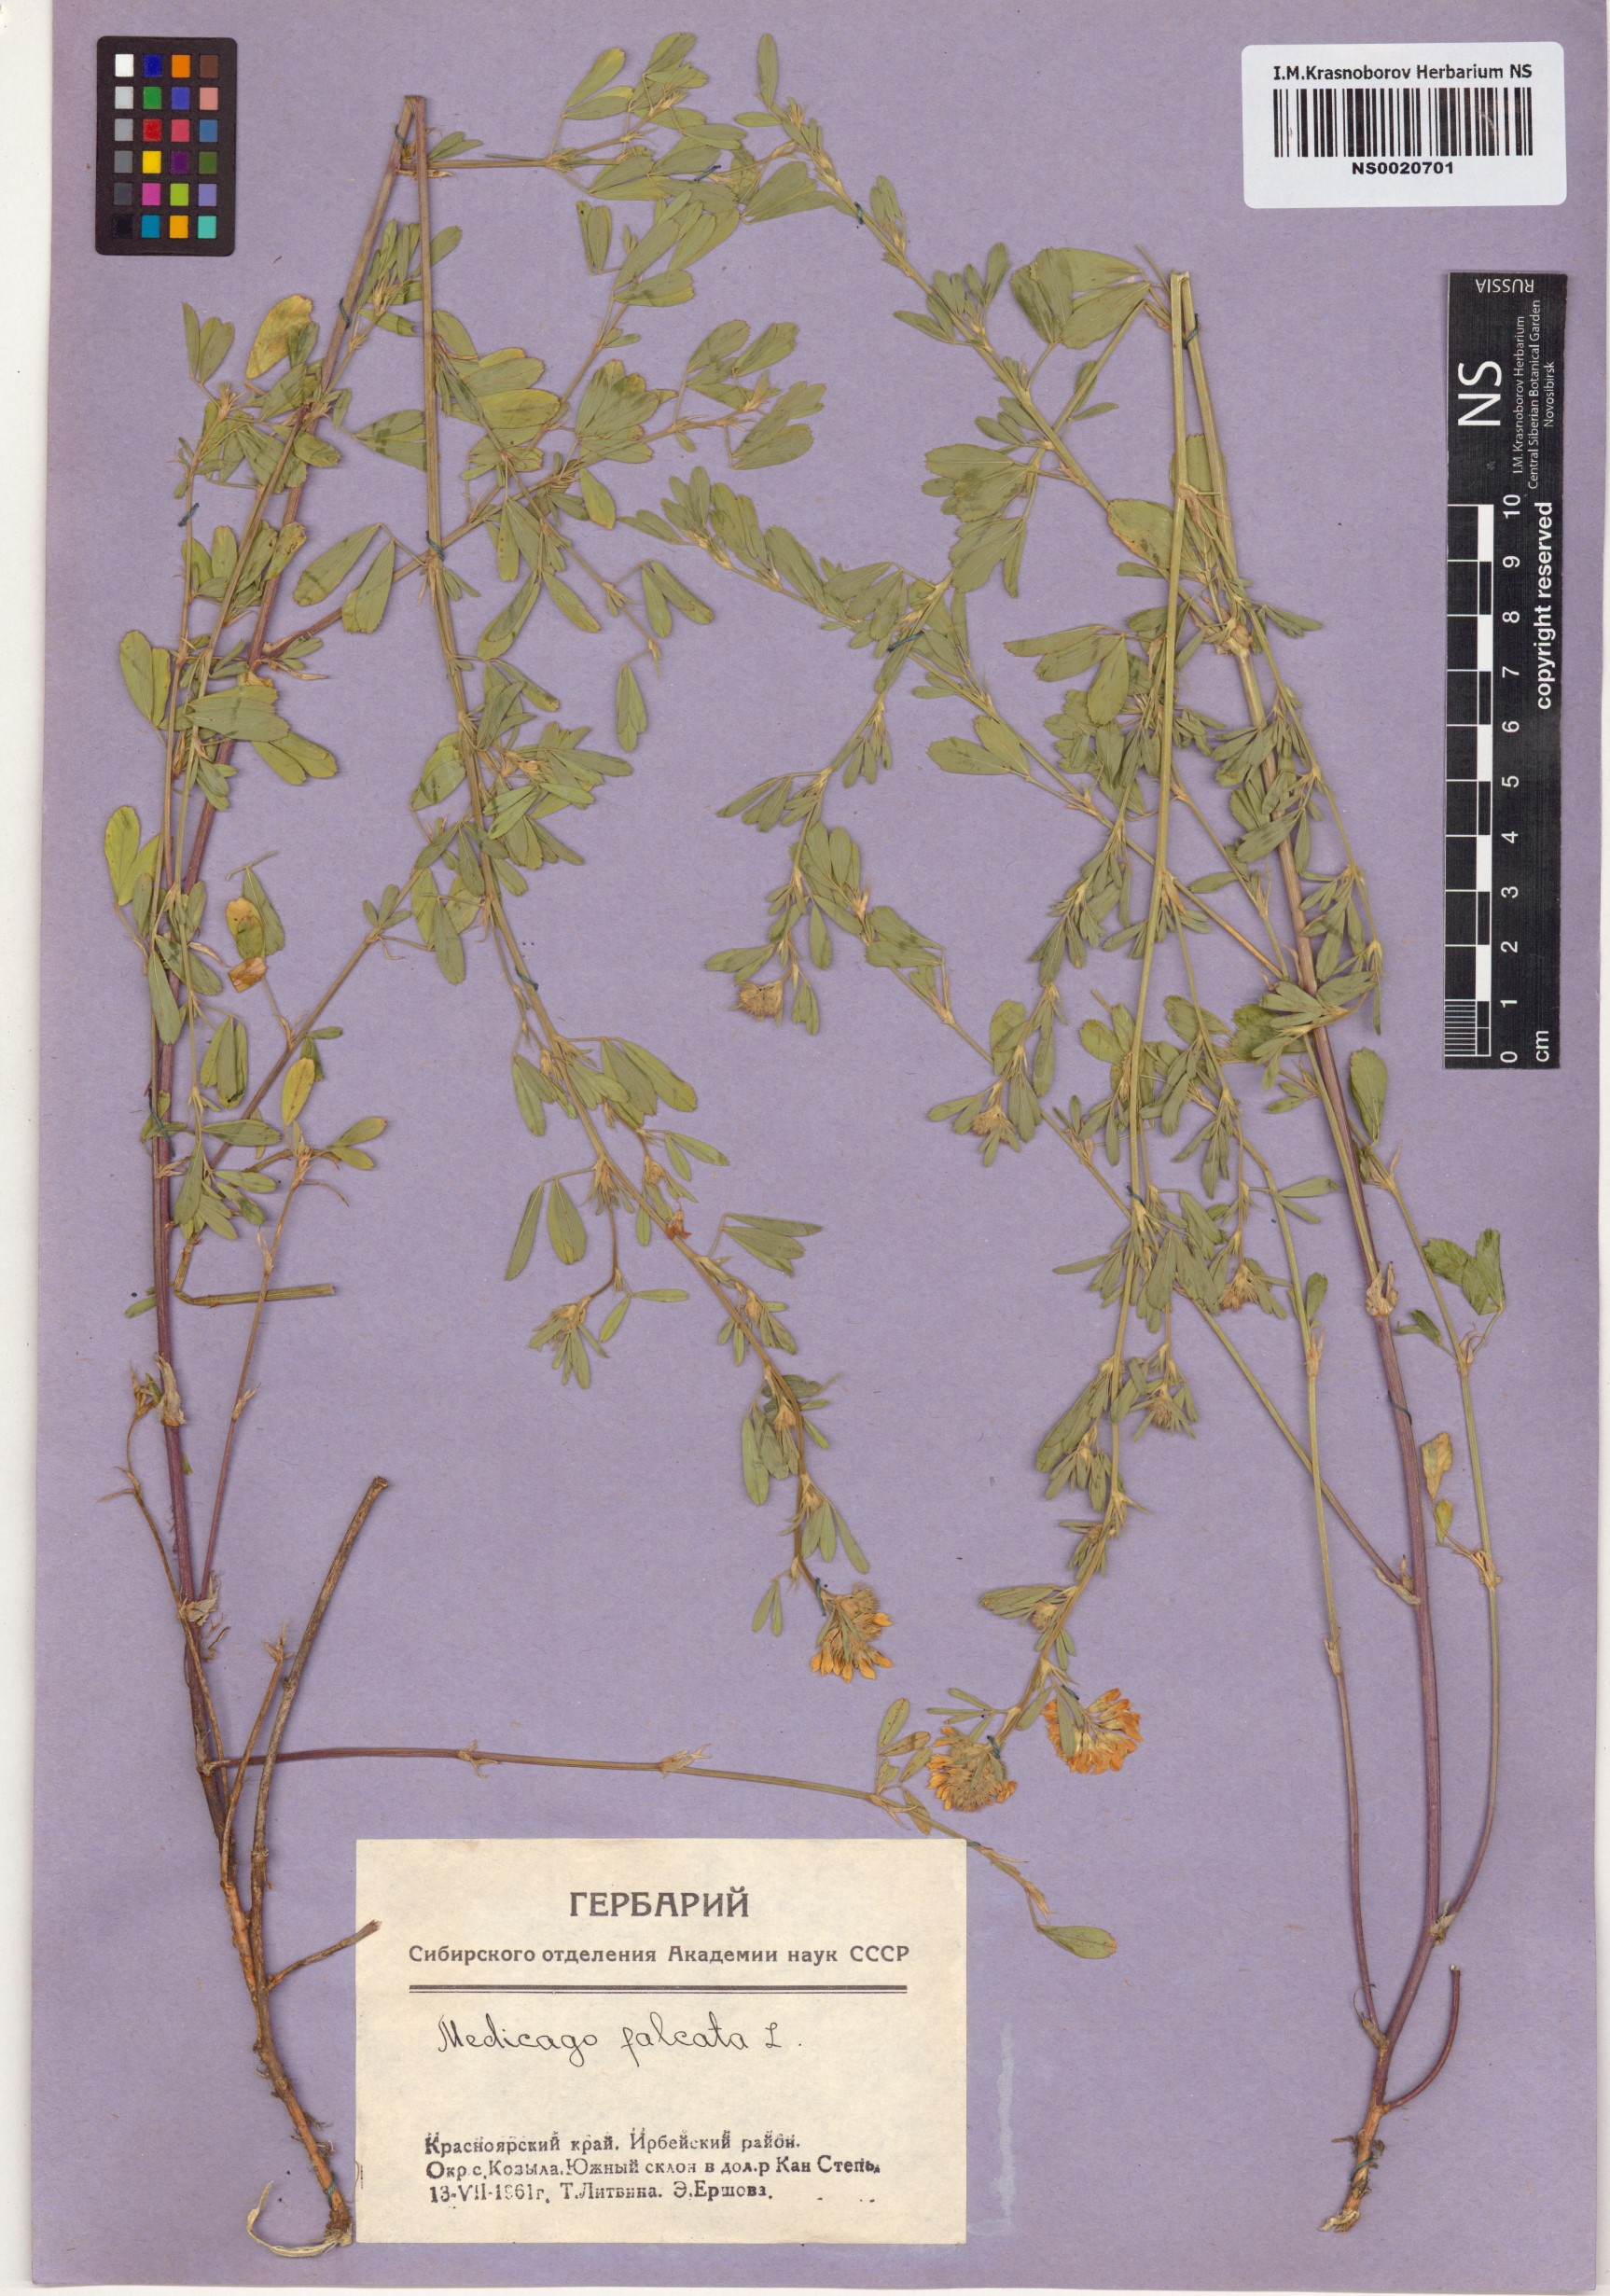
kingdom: Plantae
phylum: Tracheophyta
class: Magnoliopsida
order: Fabales
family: Fabaceae
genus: Medicago
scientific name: Medicago falcata
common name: Sickle medick
